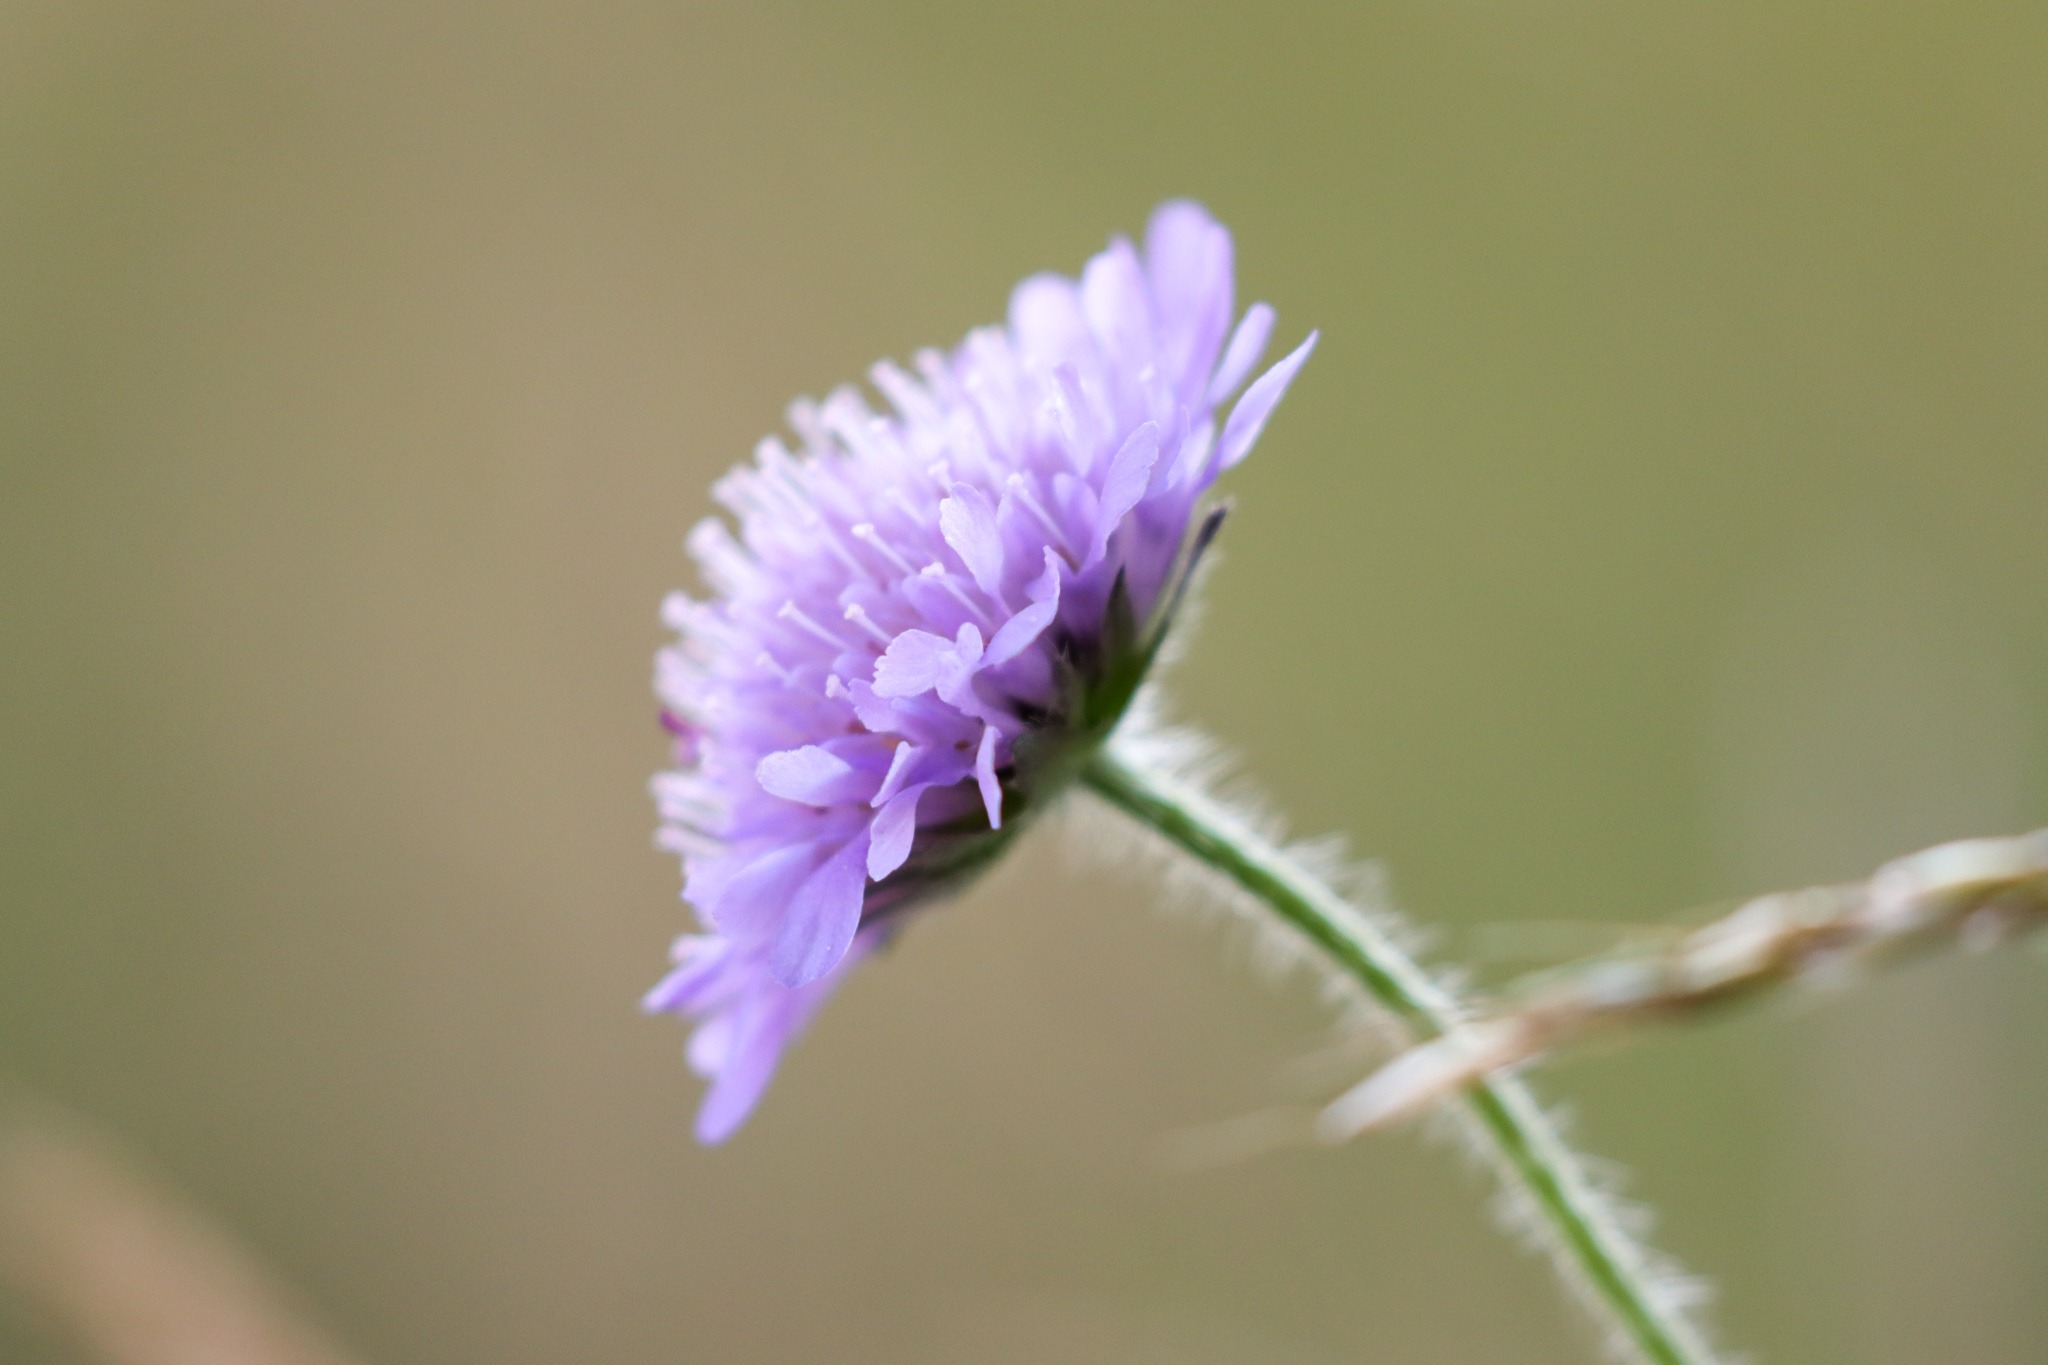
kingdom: Plantae
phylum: Tracheophyta
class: Magnoliopsida
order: Dipsacales
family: Caprifoliaceae
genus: Knautia
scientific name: Knautia arvensis
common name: Blåhat
